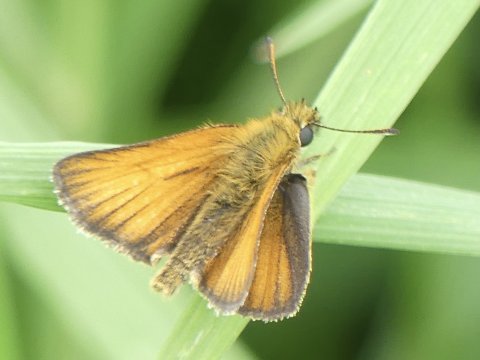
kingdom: Animalia
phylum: Arthropoda
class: Insecta
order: Lepidoptera
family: Hesperiidae
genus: Thymelicus
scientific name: Thymelicus lineola
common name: European Skipper
